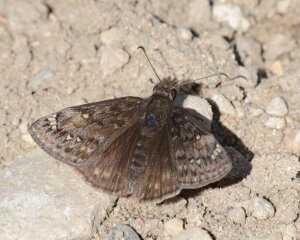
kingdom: Animalia
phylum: Arthropoda
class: Insecta
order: Lepidoptera
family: Hesperiidae
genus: Gesta
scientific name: Gesta
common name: Juvenal's Duskywing
